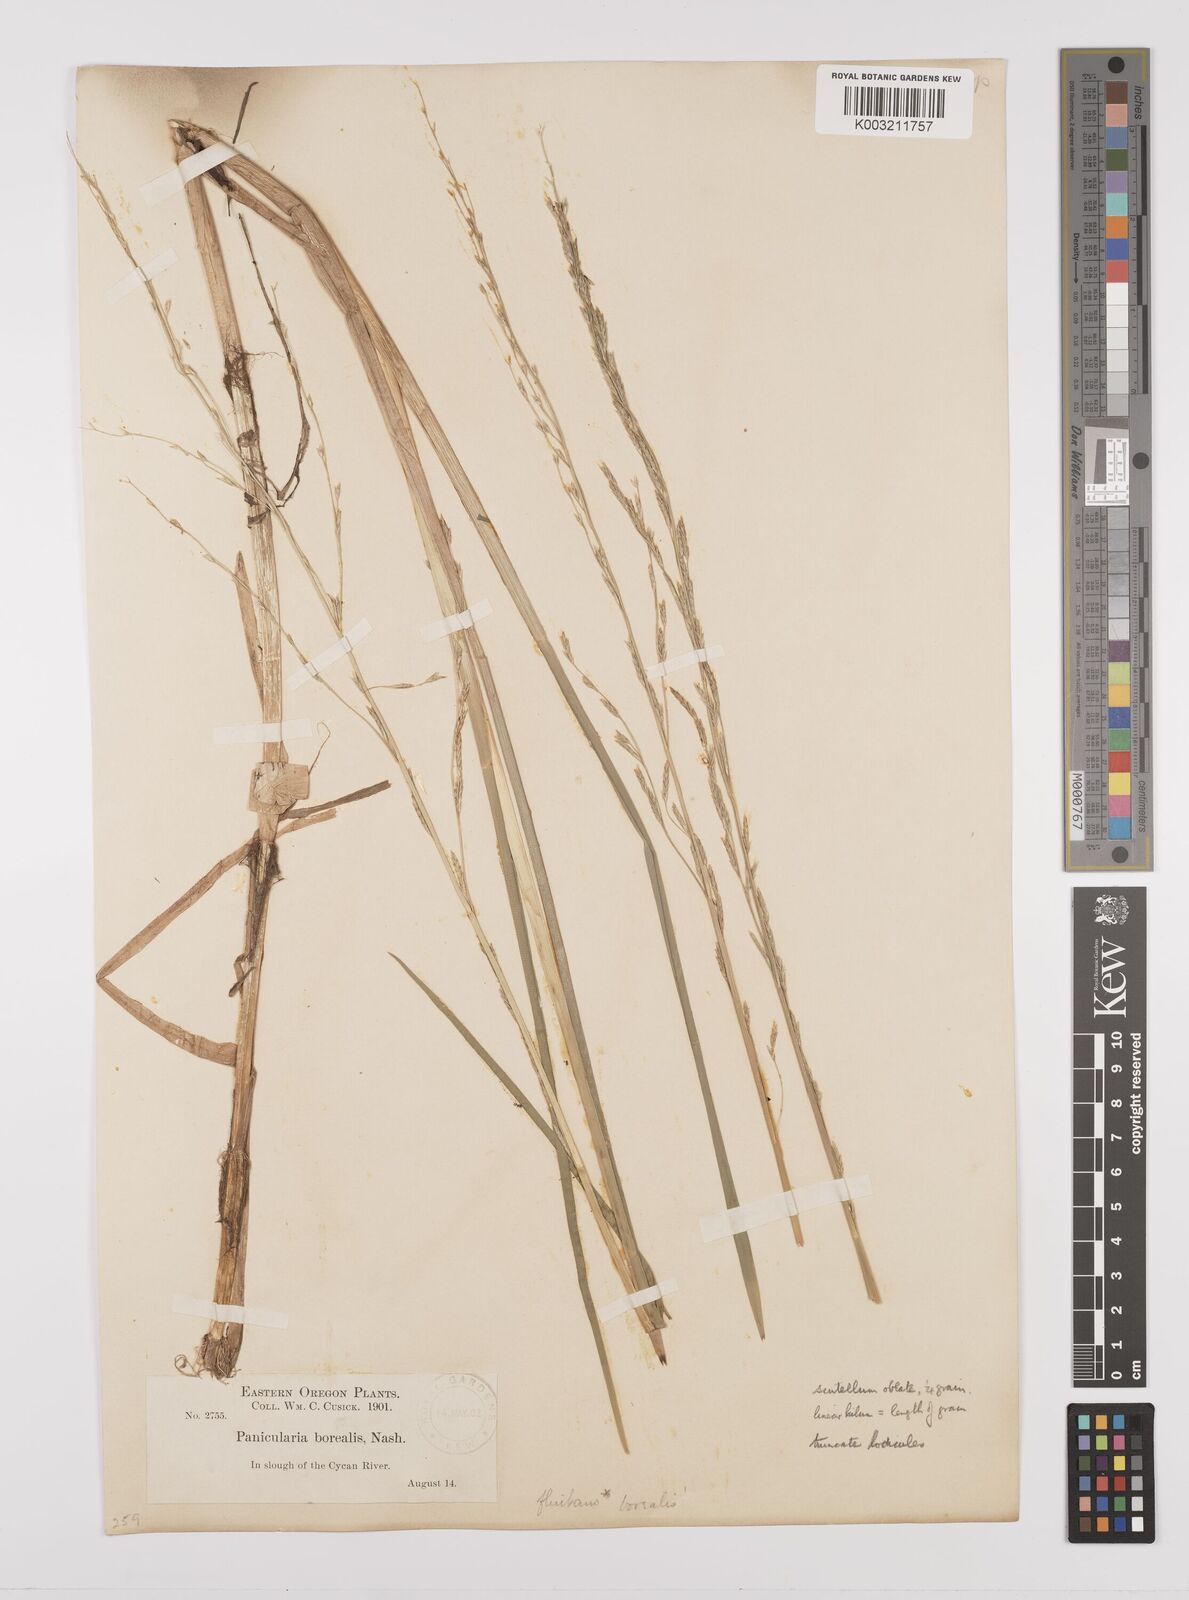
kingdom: Plantae
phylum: Tracheophyta
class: Liliopsida
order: Poales
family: Poaceae
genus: Glyceria
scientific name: Glyceria borealis
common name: Boreal glyceria
